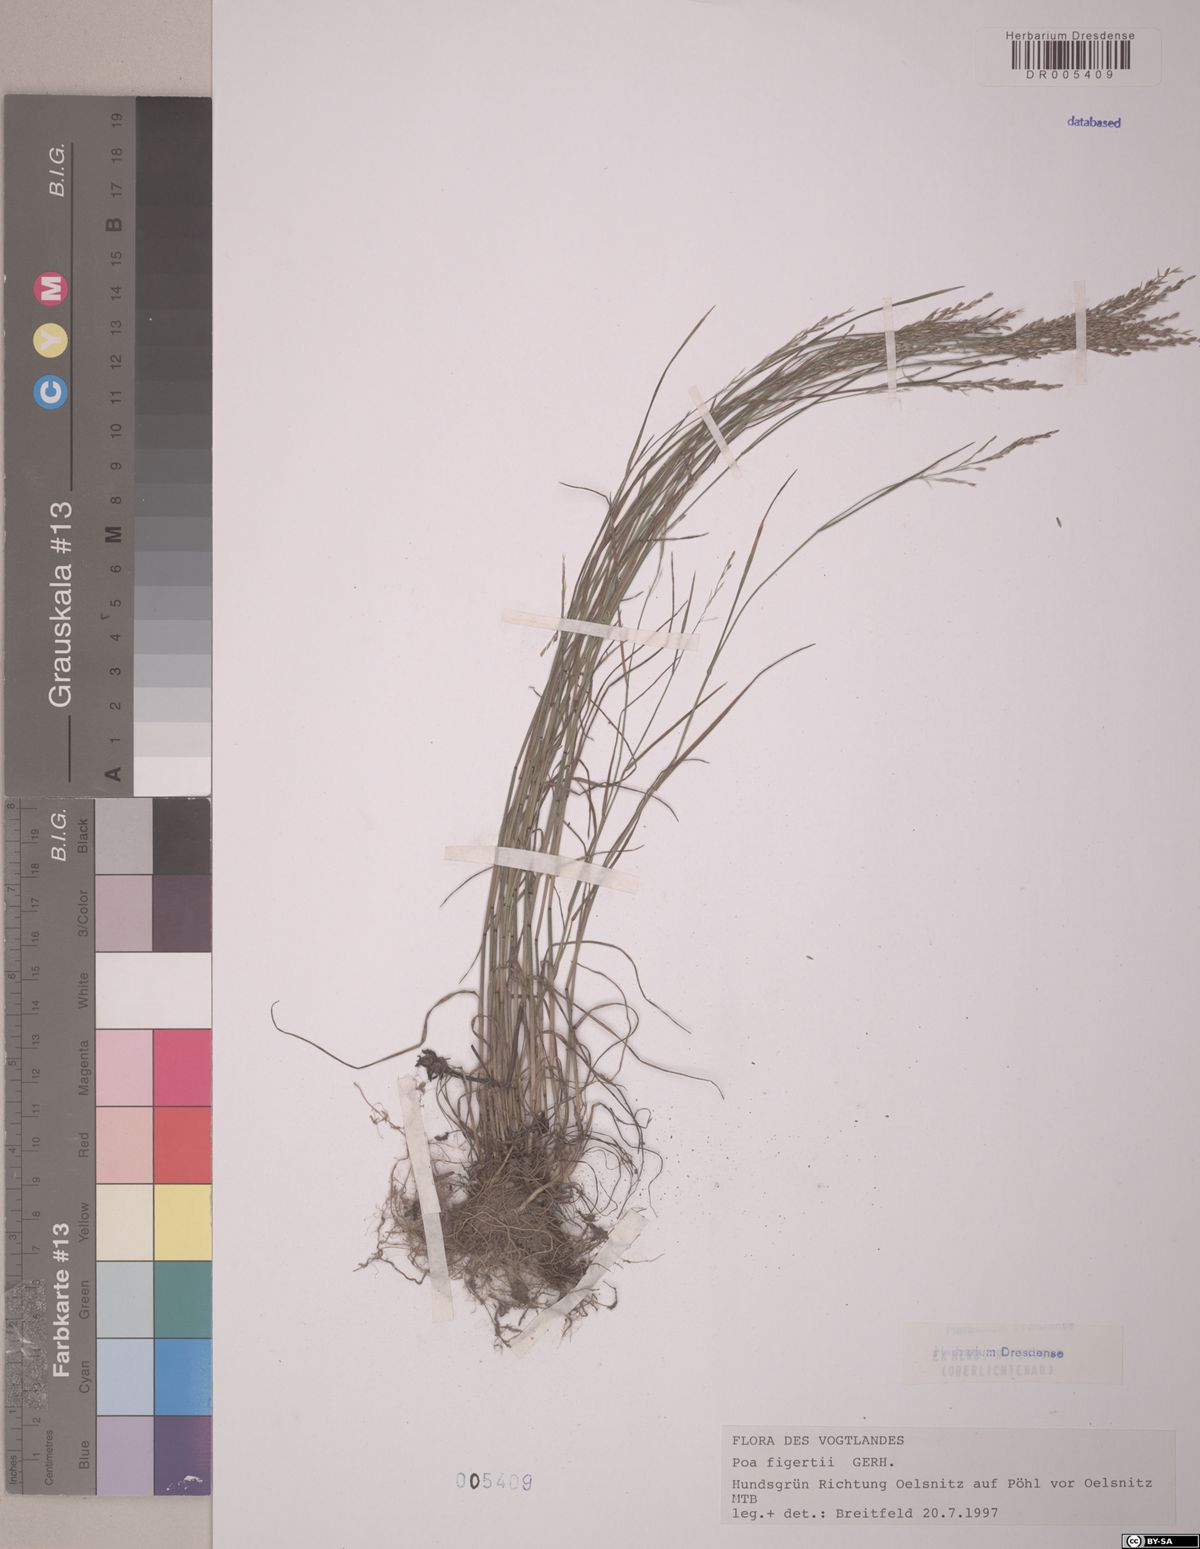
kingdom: Plantae
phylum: Tracheophyta
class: Liliopsida
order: Poales
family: Poaceae
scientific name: Poaceae
